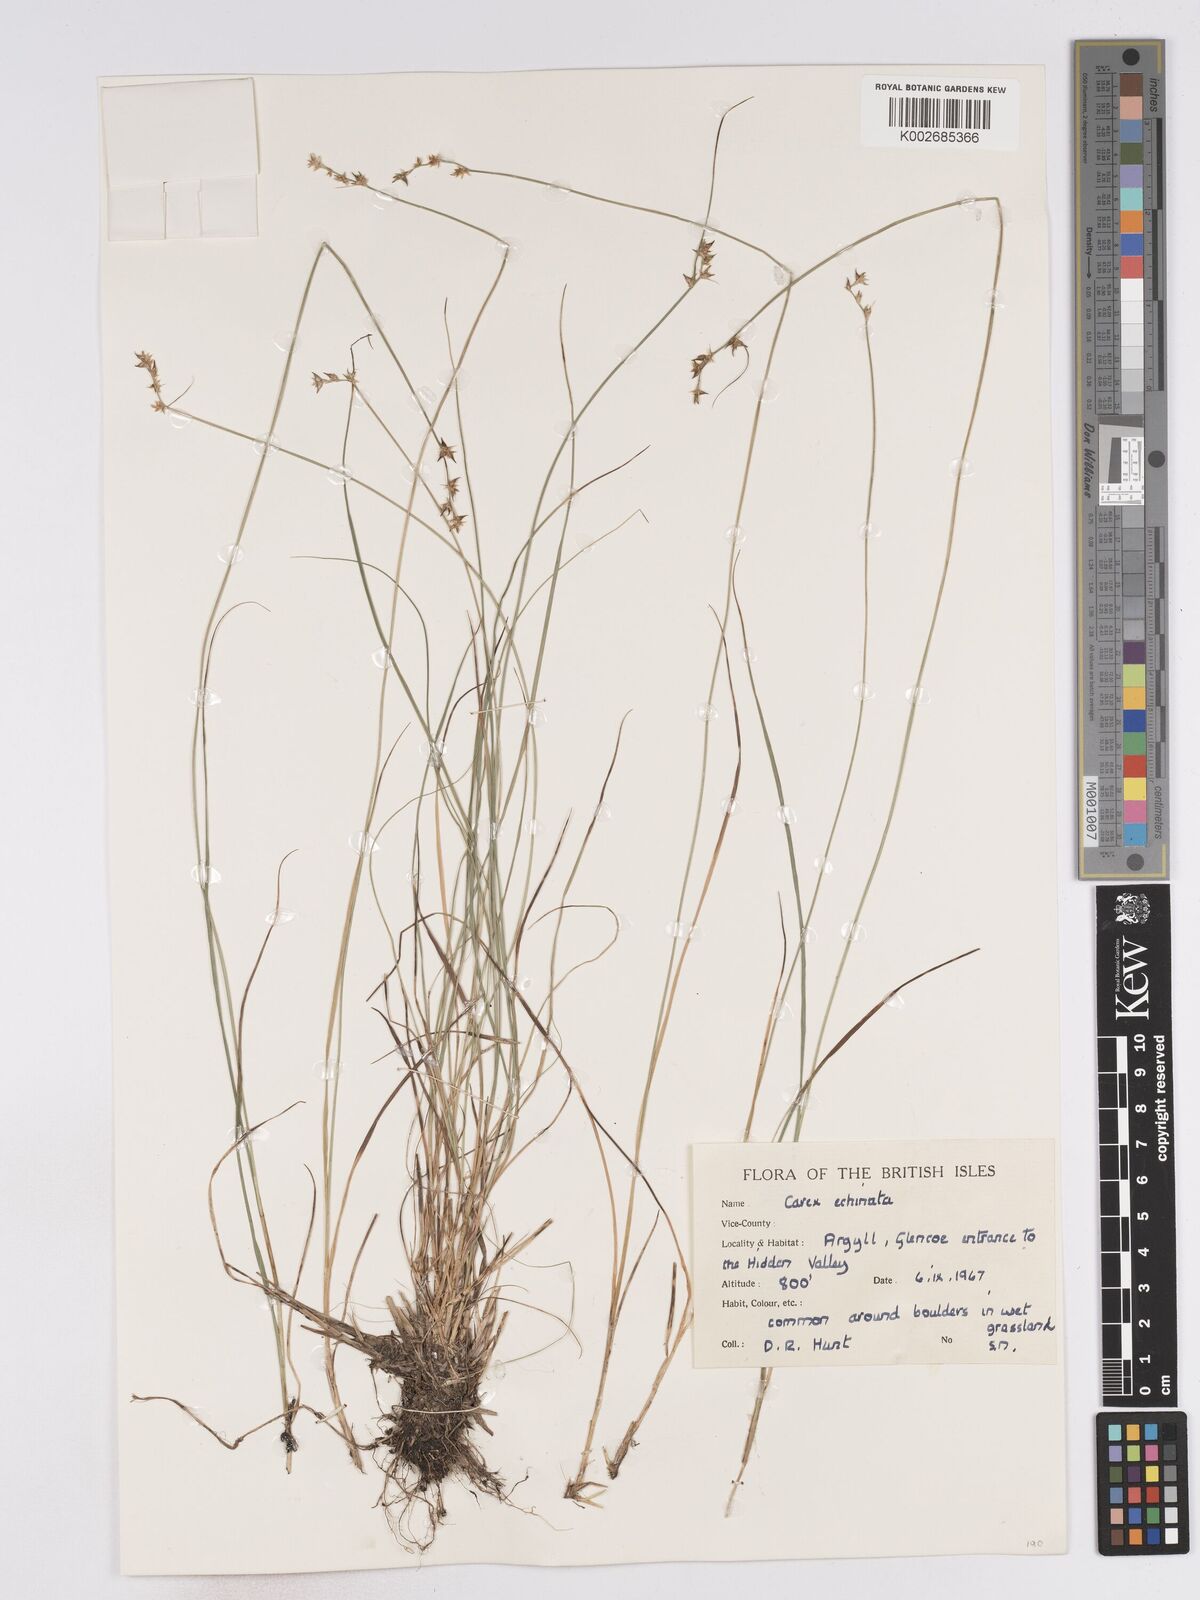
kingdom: Plantae
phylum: Tracheophyta
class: Liliopsida
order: Poales
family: Cyperaceae
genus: Carex
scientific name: Carex echinata
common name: Star sedge
